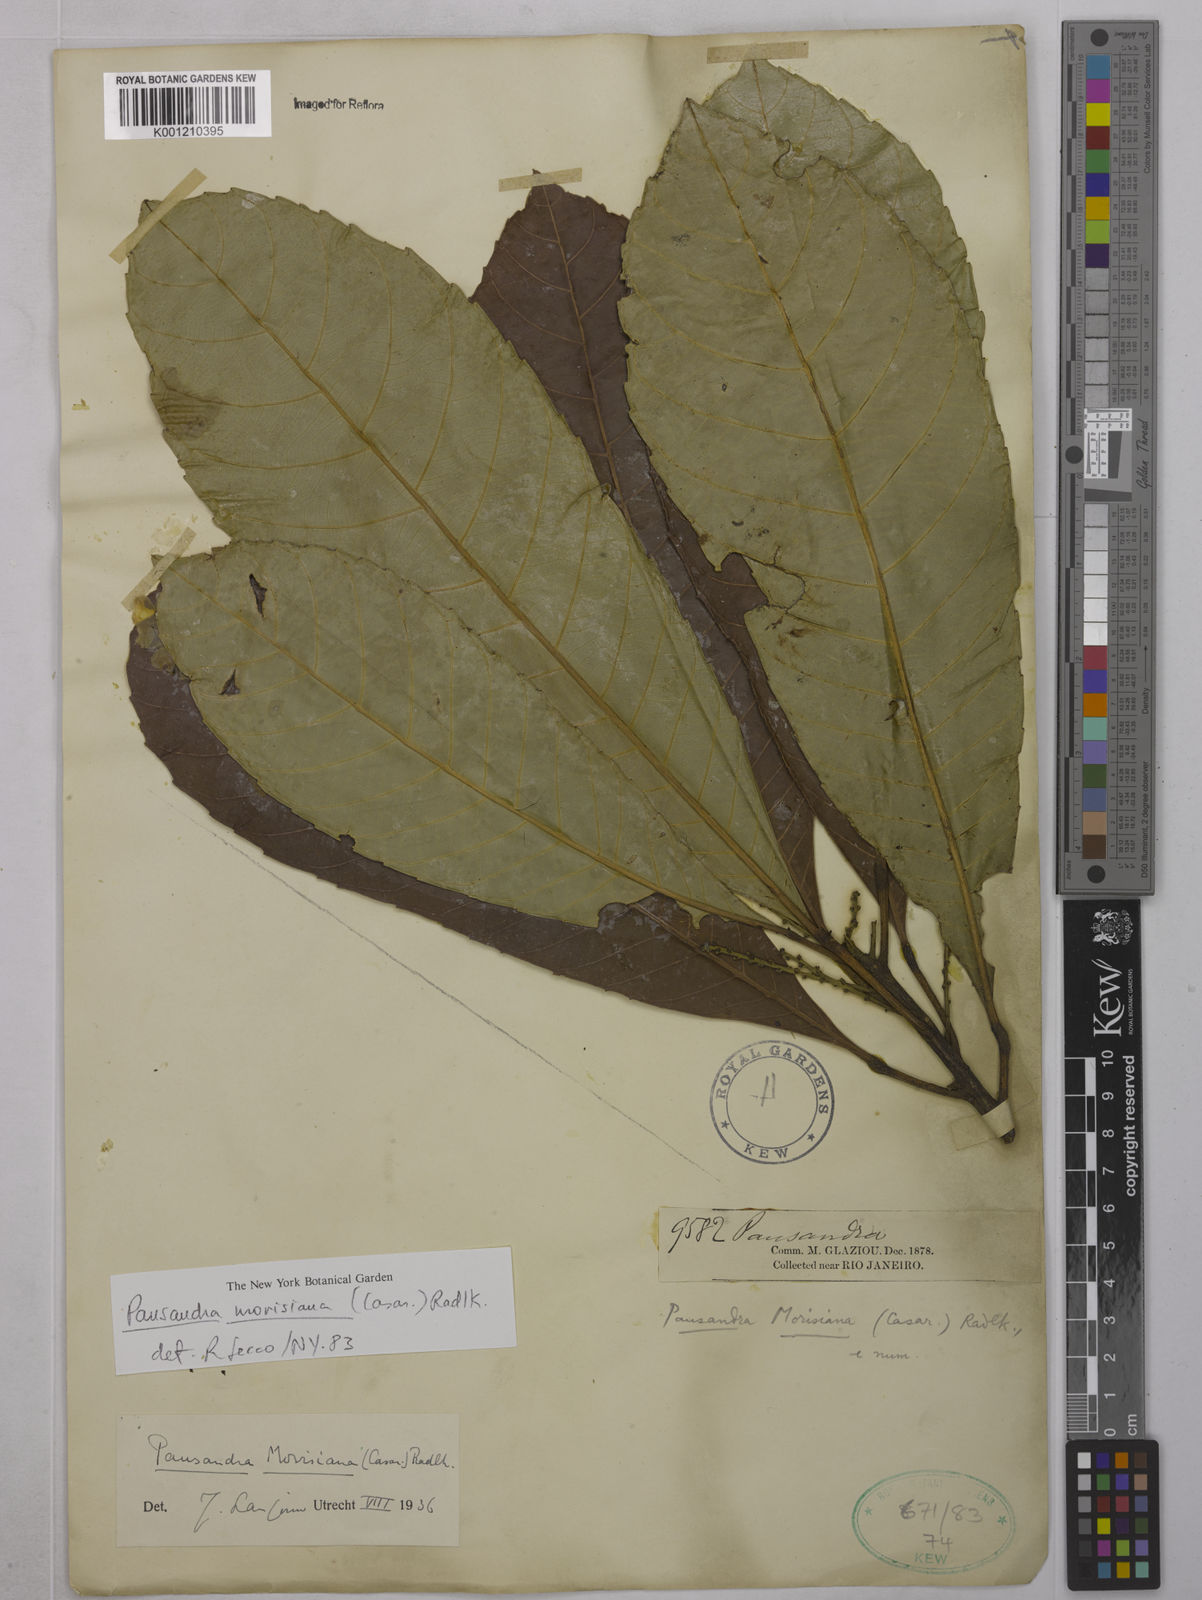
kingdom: Plantae
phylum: Tracheophyta
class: Magnoliopsida
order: Malpighiales
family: Euphorbiaceae
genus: Pausandra
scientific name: Pausandra morisiana
